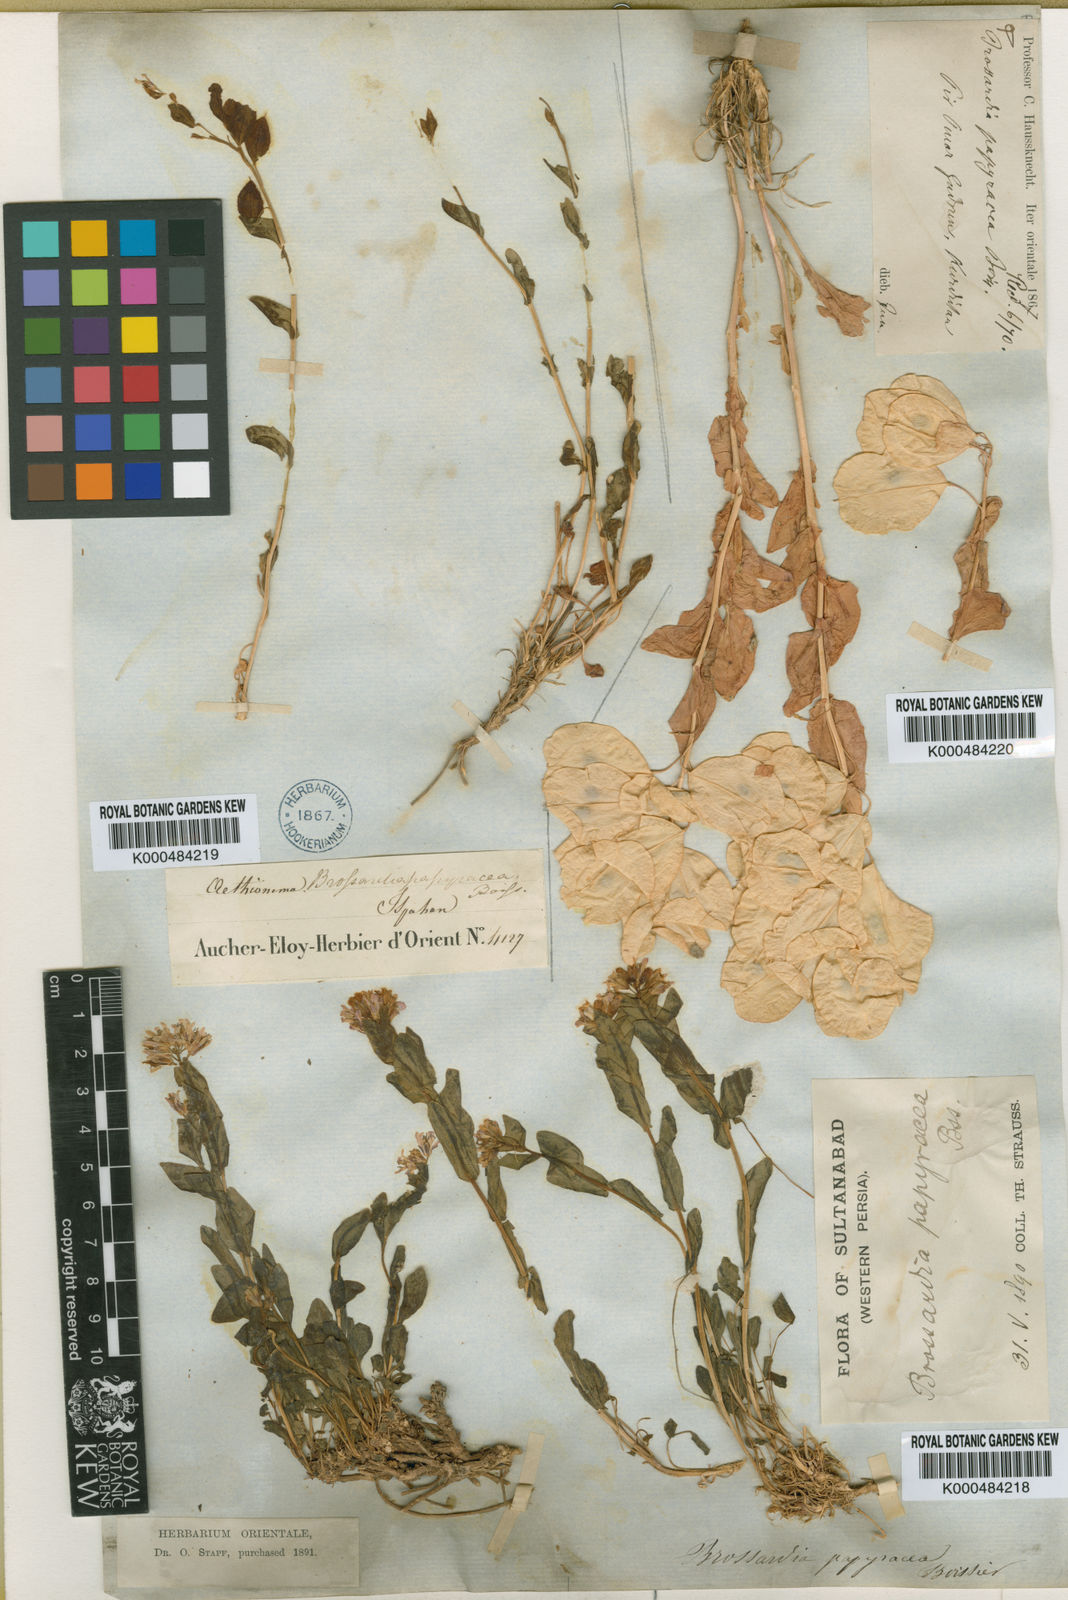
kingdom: Plantae
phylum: Tracheophyta
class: Magnoliopsida
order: Brassicales
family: Brassicaceae
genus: Noccaea
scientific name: Noccaea
